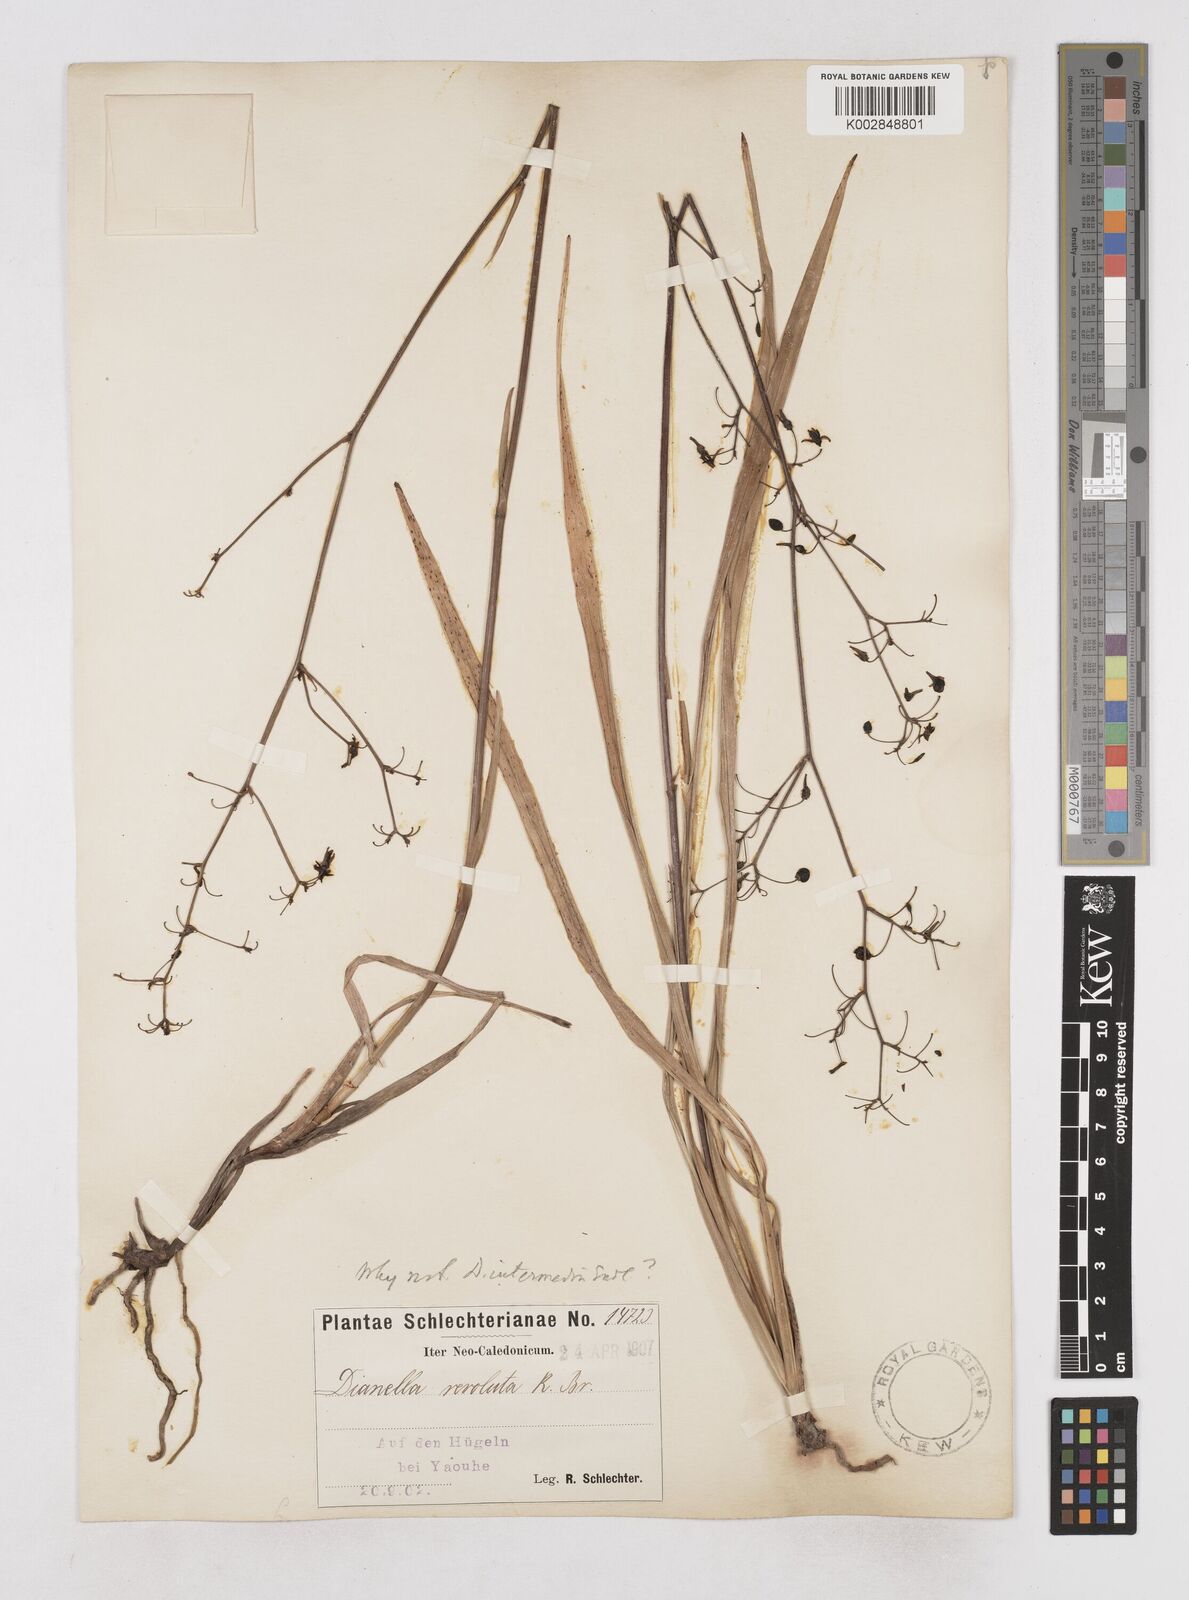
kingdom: Plantae
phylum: Tracheophyta
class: Liliopsida
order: Asparagales
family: Asphodelaceae
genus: Dianella
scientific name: Dianella adenanthera
